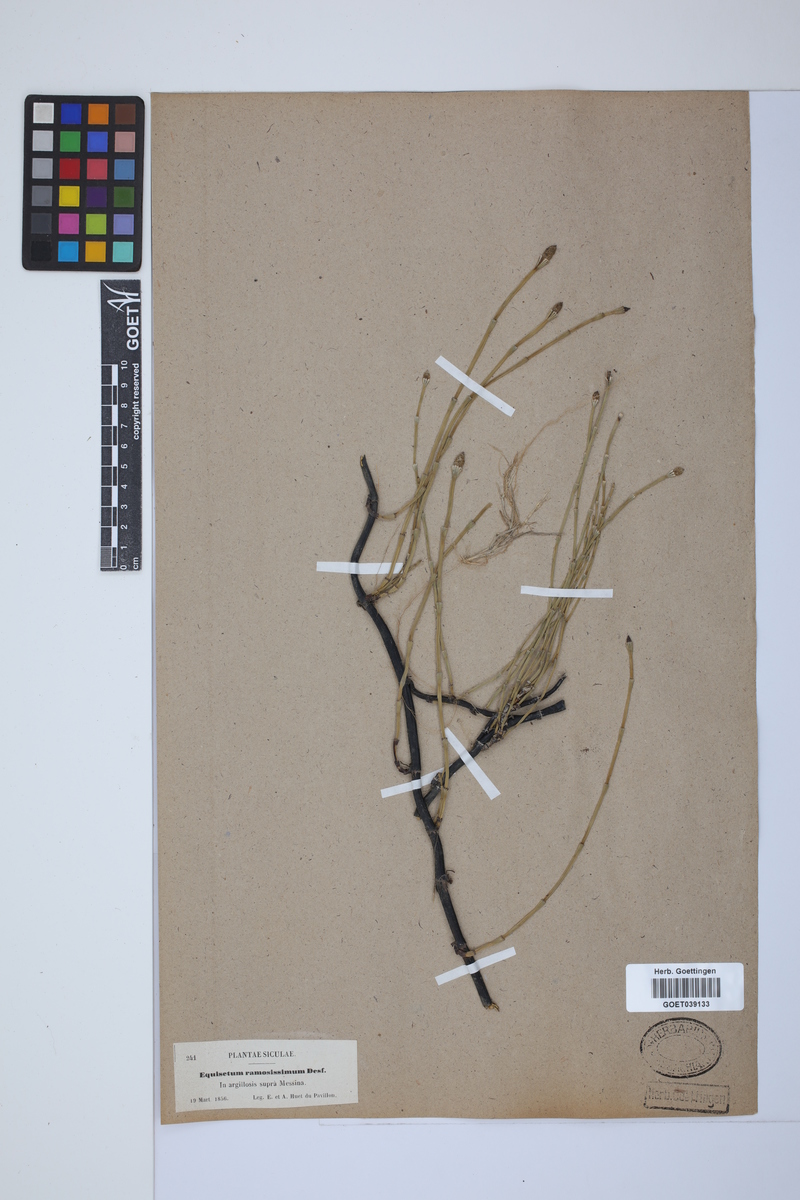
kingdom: Plantae
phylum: Tracheophyta
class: Polypodiopsida
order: Equisetales
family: Equisetaceae
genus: Equisetum
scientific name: Equisetum giganteum
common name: Giant horsetail
